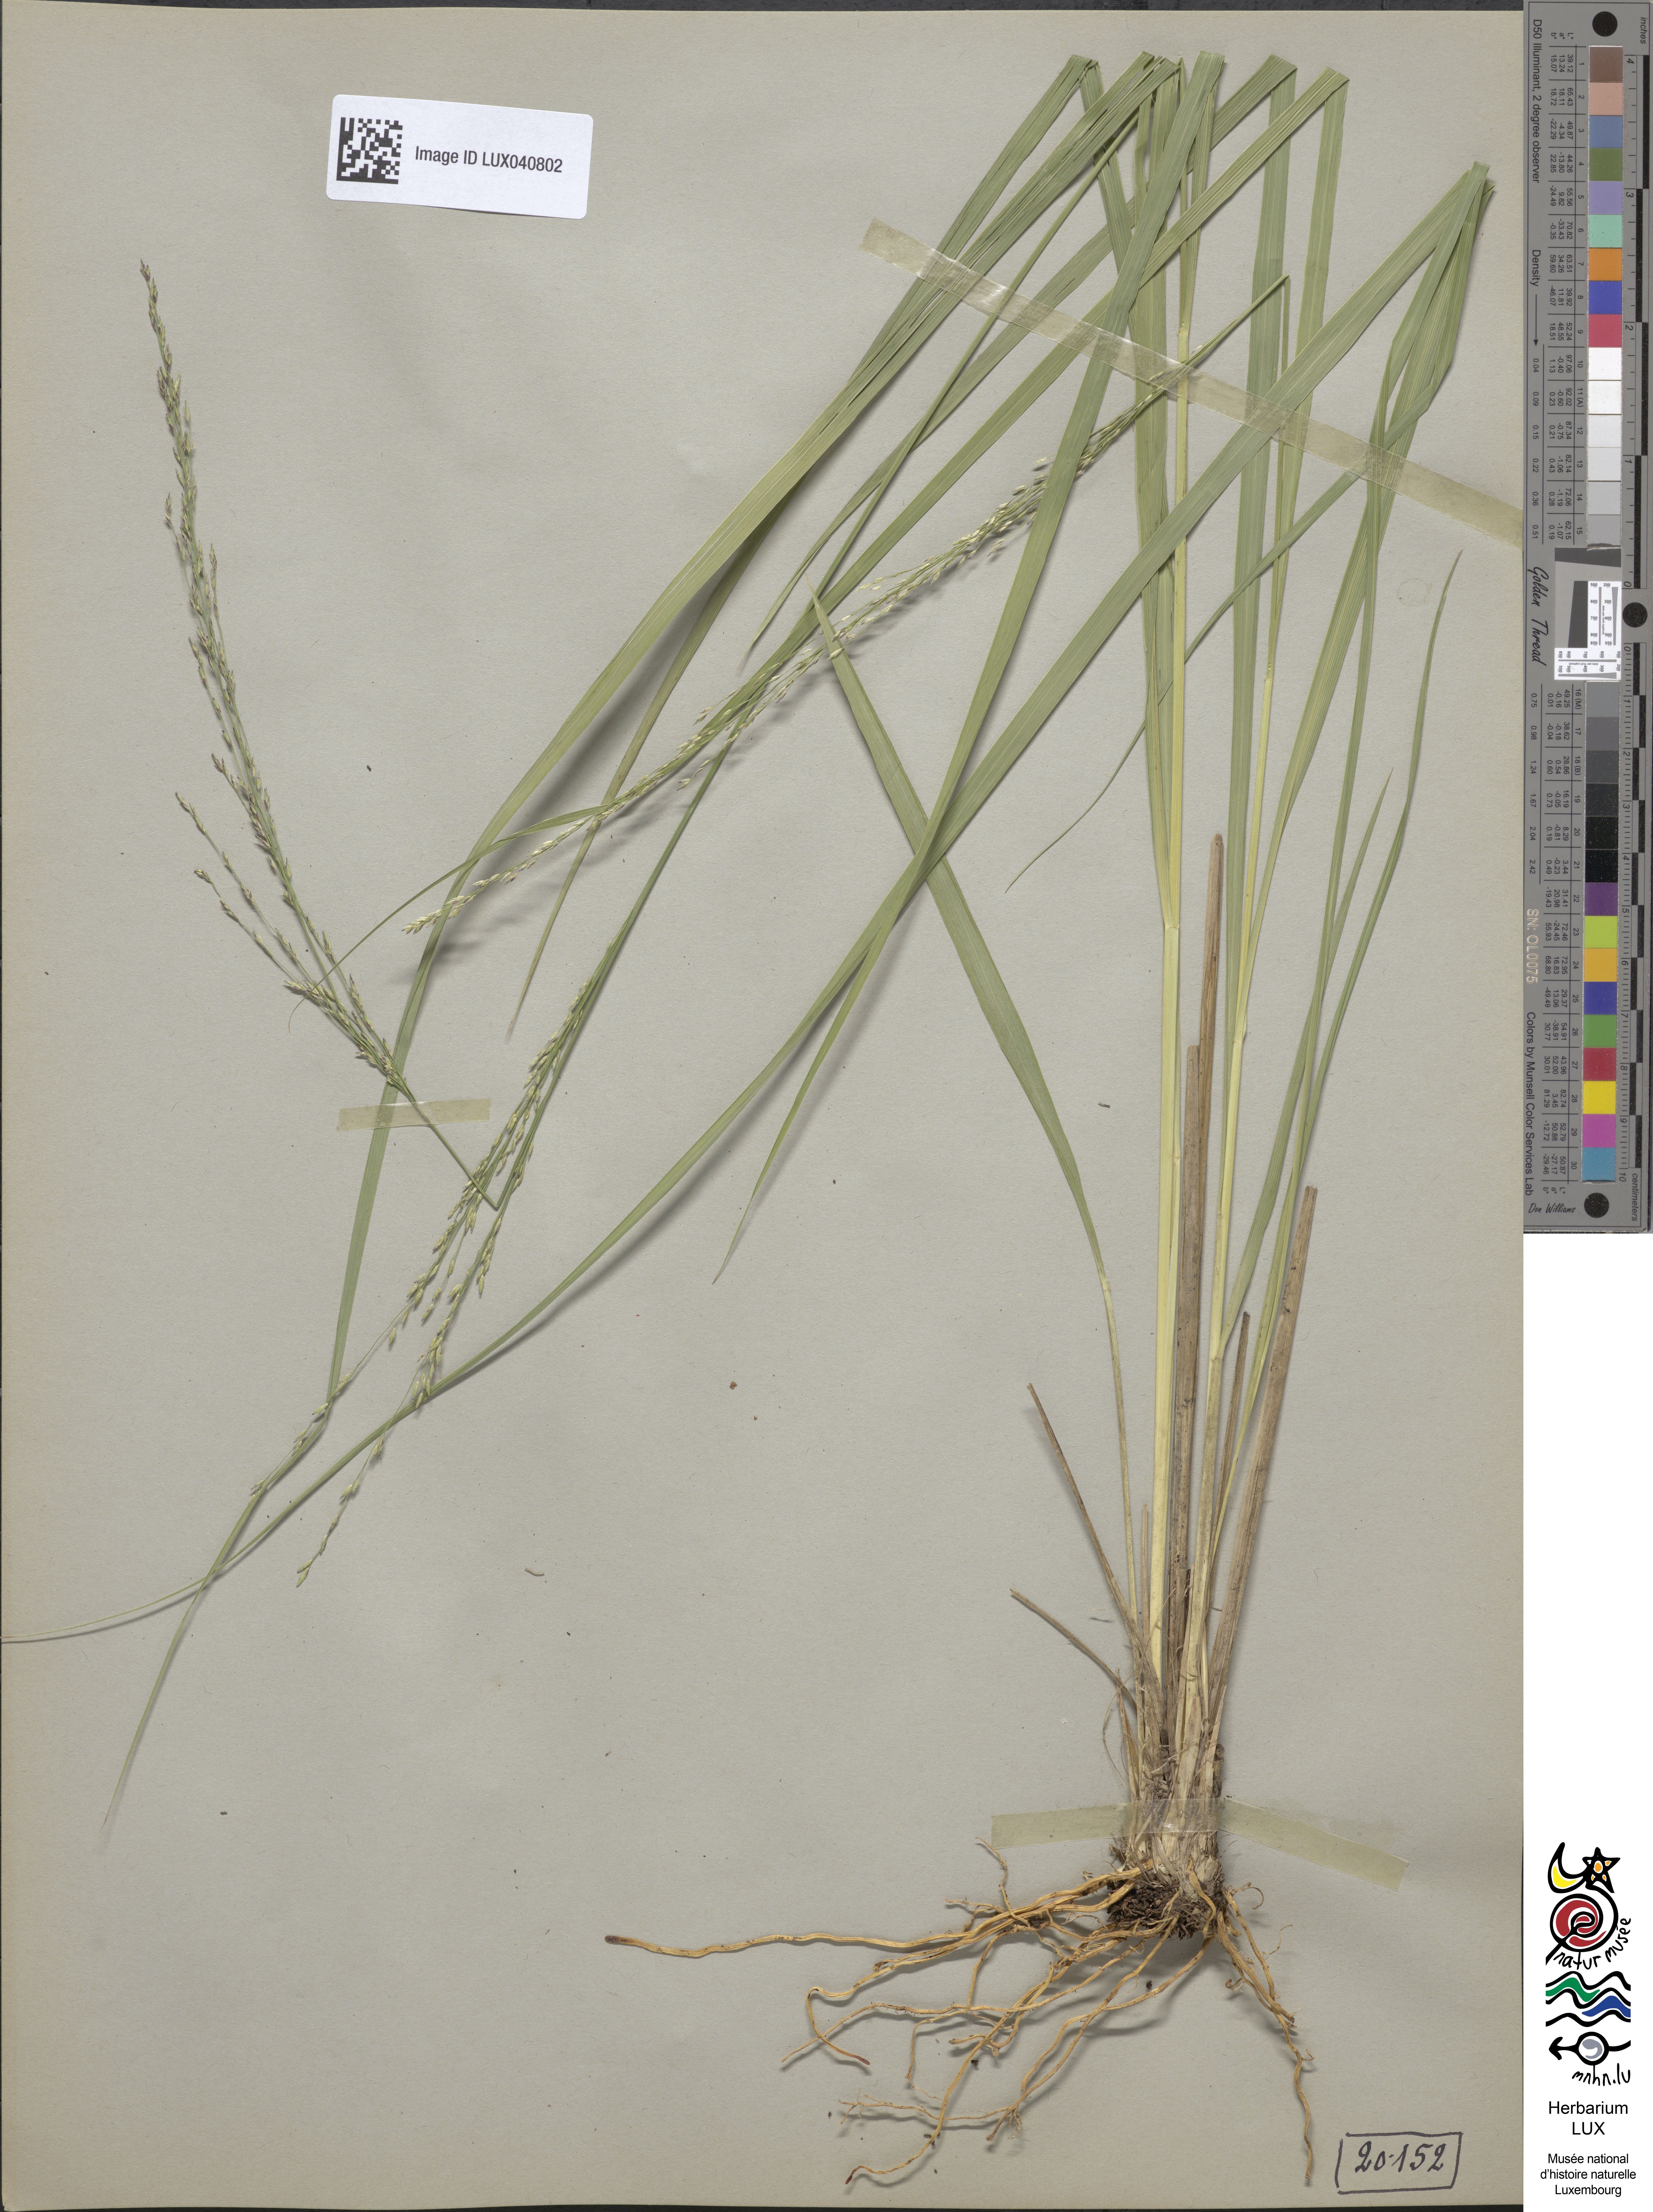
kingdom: Plantae
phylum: Tracheophyta
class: Liliopsida
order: Poales
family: Poaceae
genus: Molinia
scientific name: Molinia caerulea
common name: Purple moor-grass
